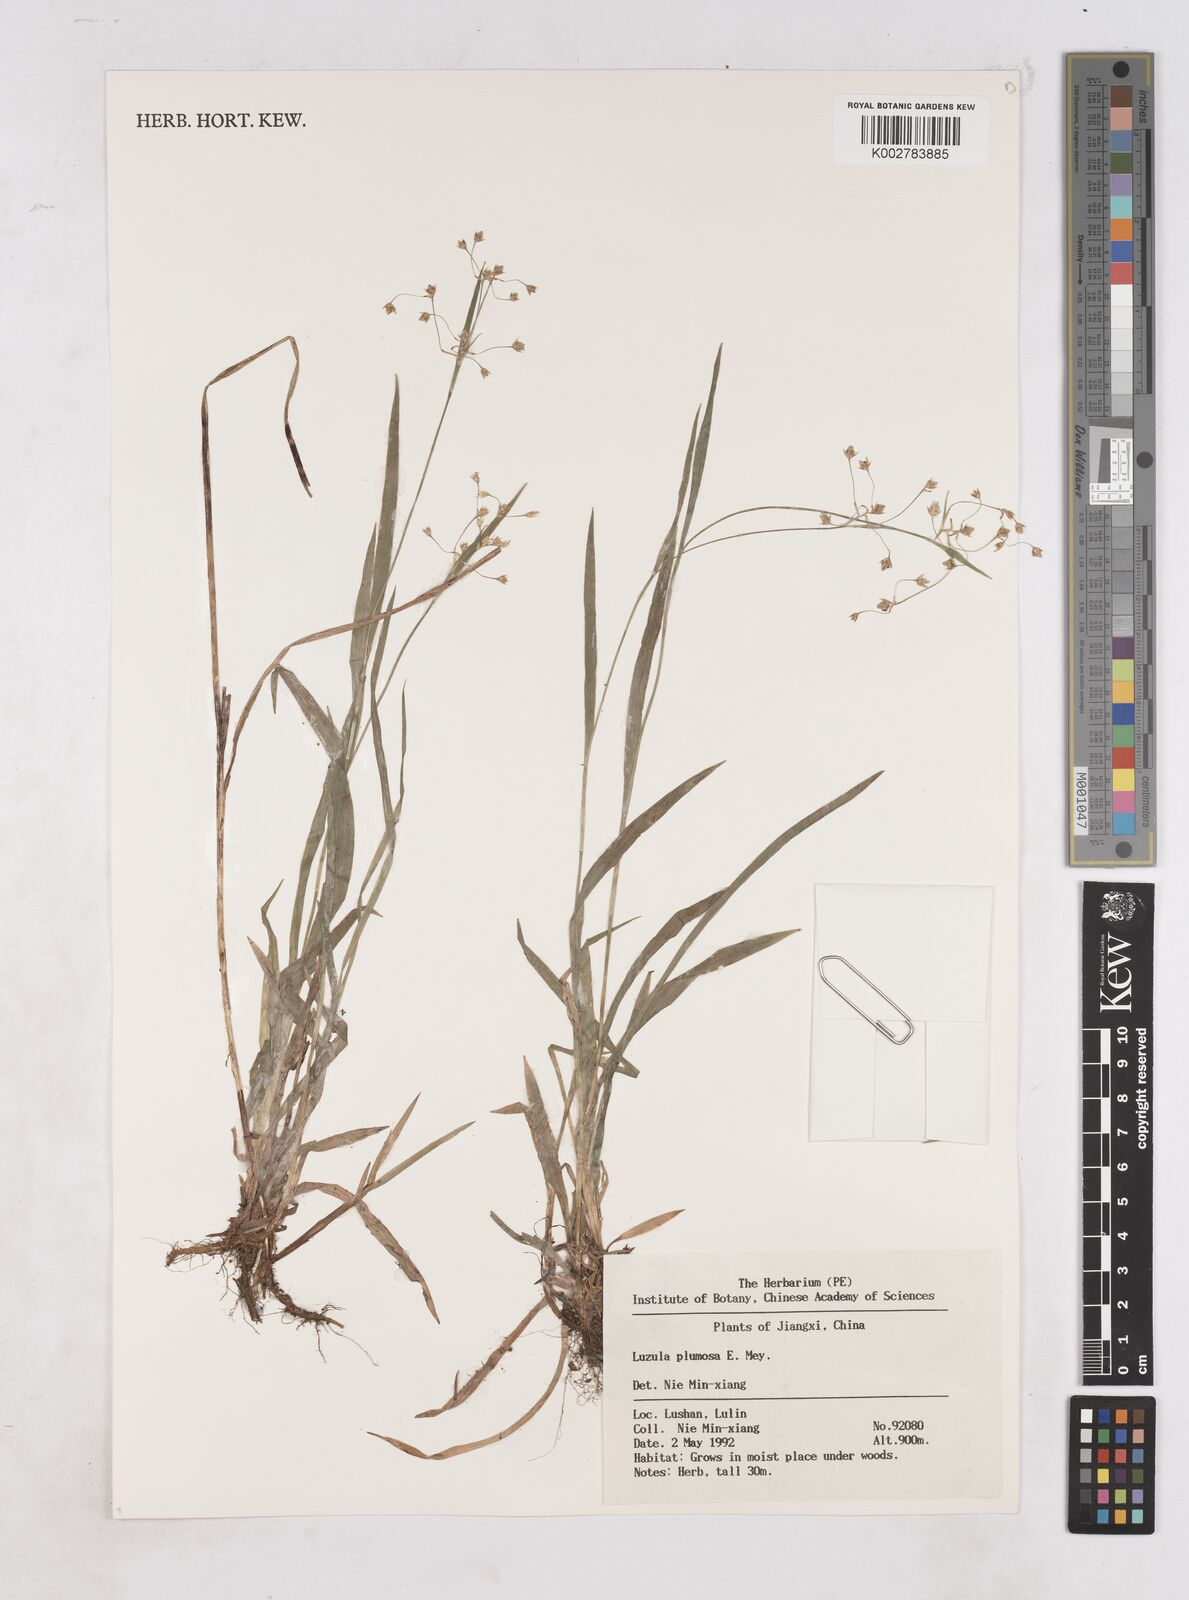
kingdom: Plantae
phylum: Tracheophyta
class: Liliopsida
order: Poales
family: Juncaceae
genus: Luzula
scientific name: Luzula plumosa
